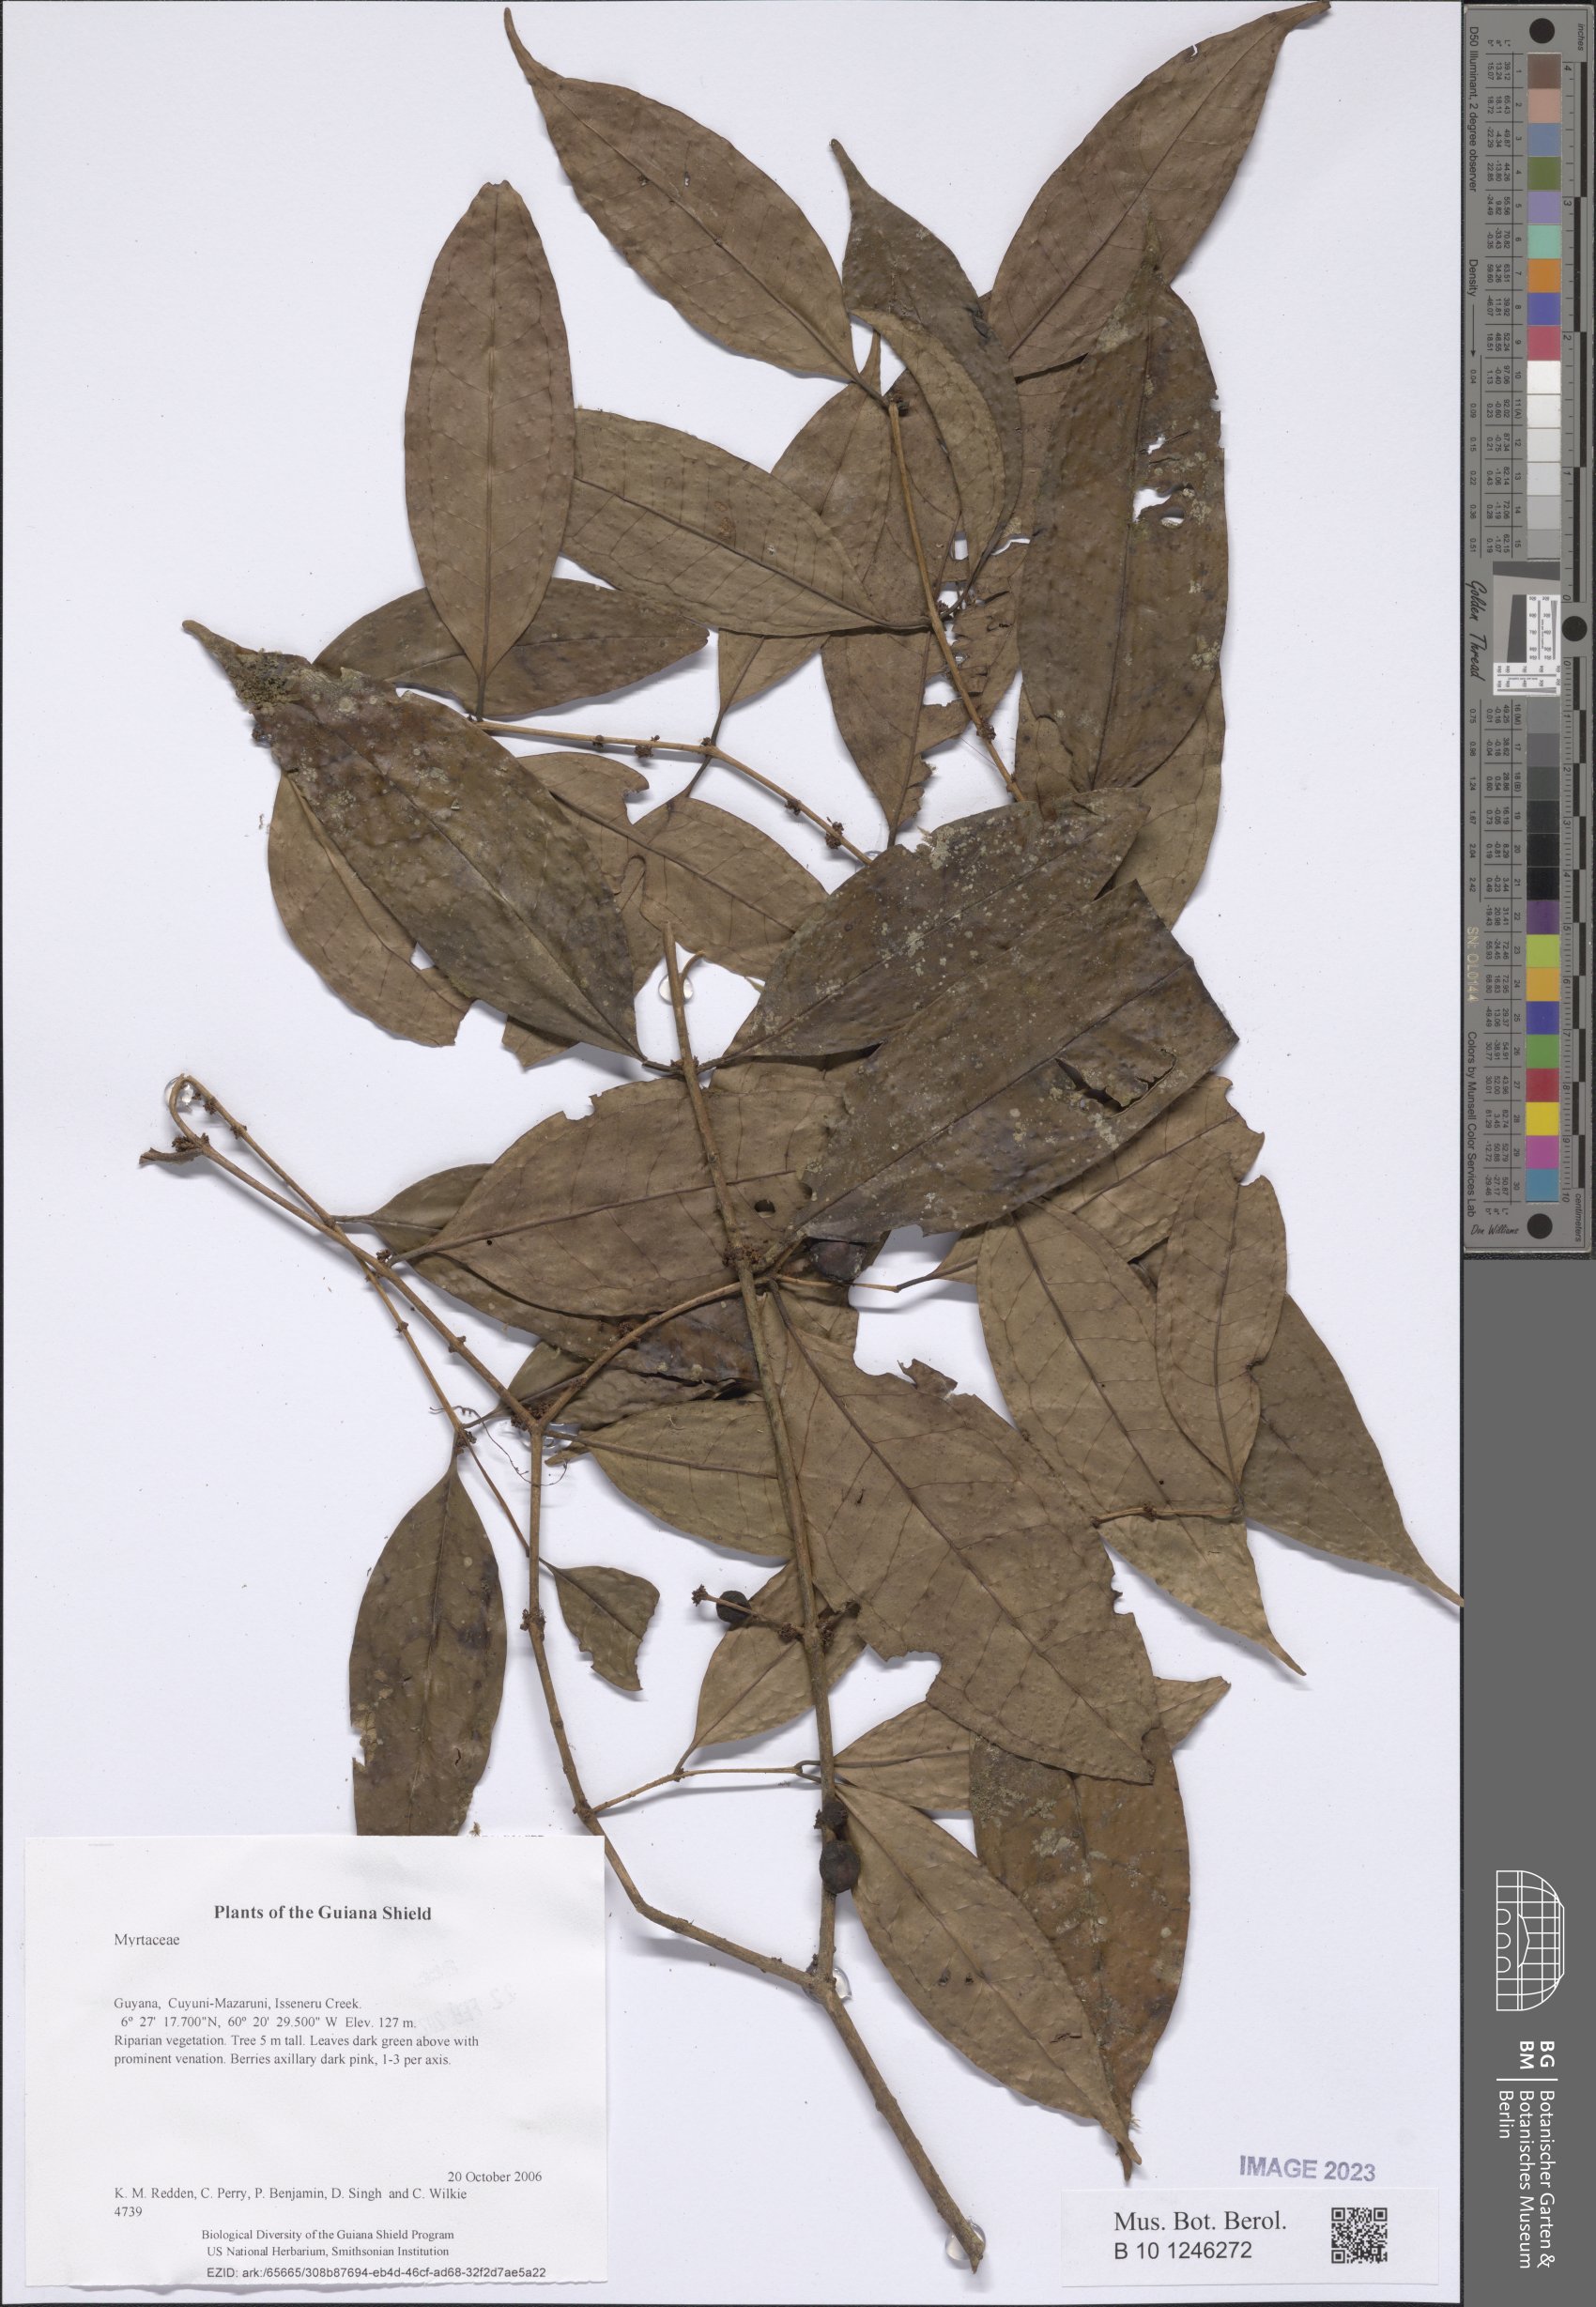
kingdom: Plantae
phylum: Tracheophyta
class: Magnoliopsida
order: Myrtales
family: Myrtaceae
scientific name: Myrtaceae
